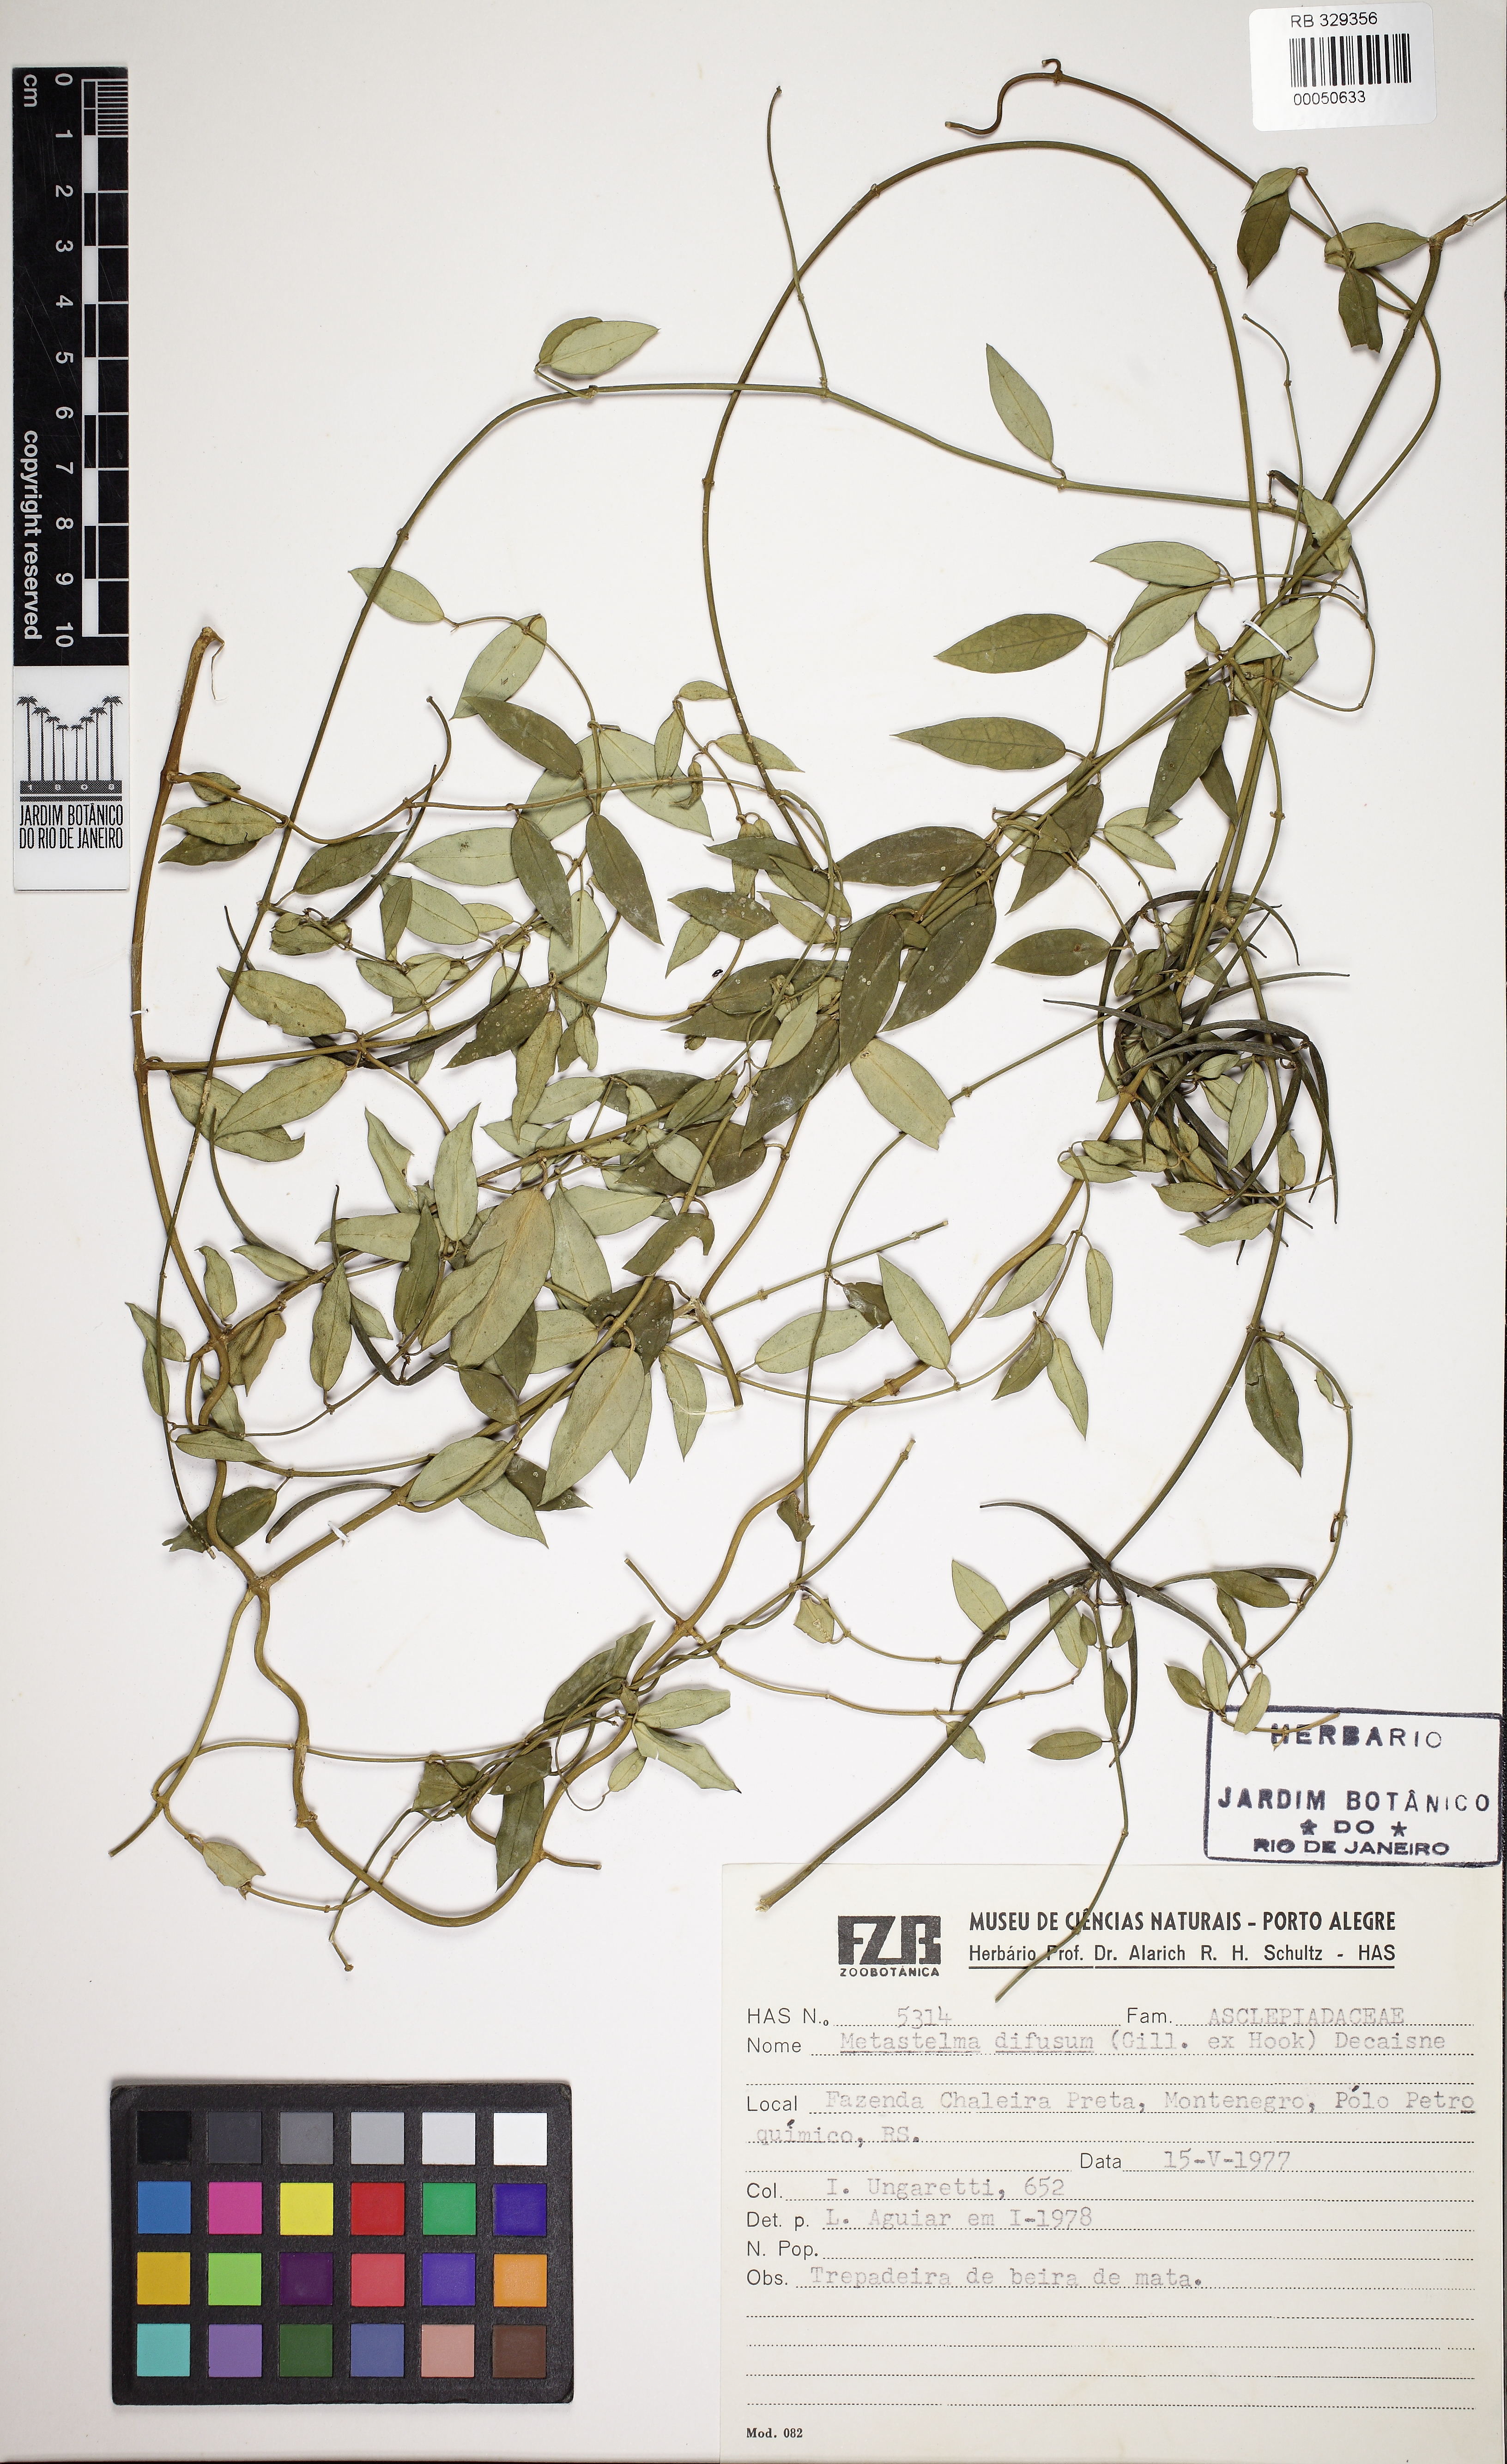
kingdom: Plantae
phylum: Tracheophyta
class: Magnoliopsida
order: Gentianales
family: Apocynaceae
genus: Orthosia
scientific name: Orthosia urceolata
